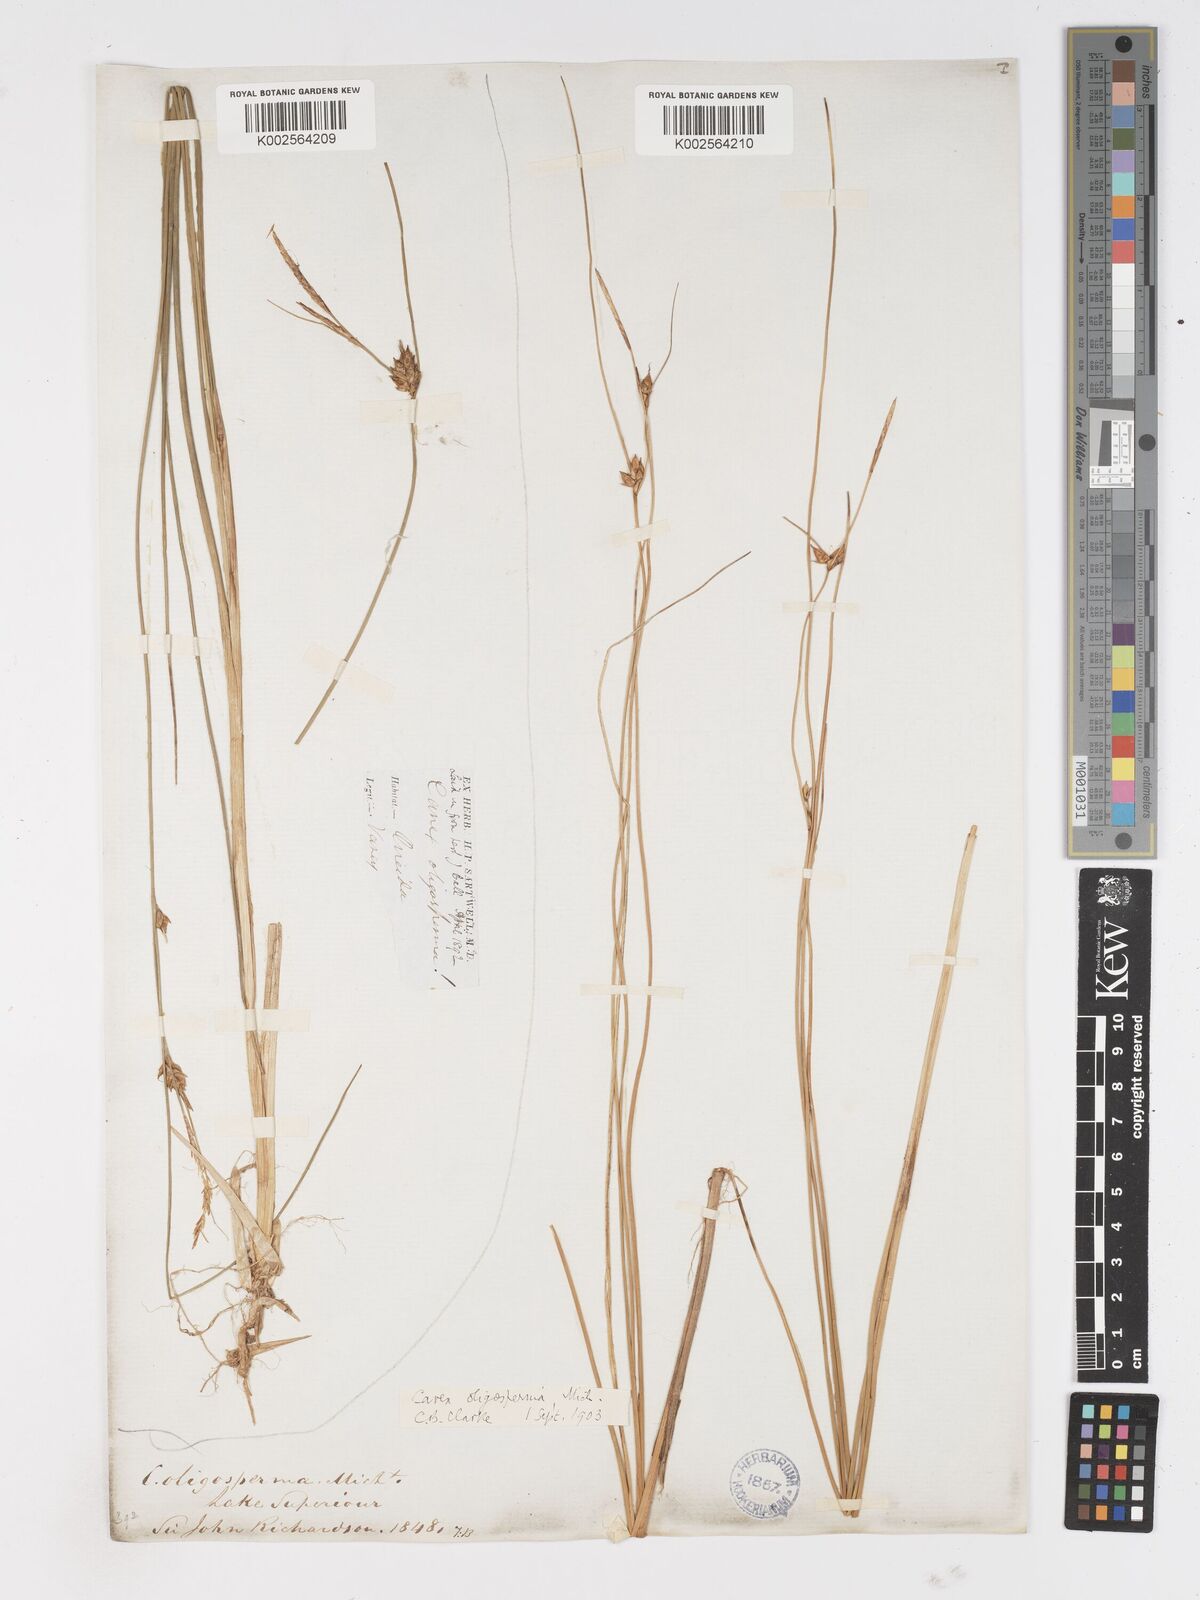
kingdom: Plantae
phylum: Tracheophyta
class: Liliopsida
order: Poales
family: Cyperaceae
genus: Carex
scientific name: Carex oligosperma
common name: Few-seed sedge
